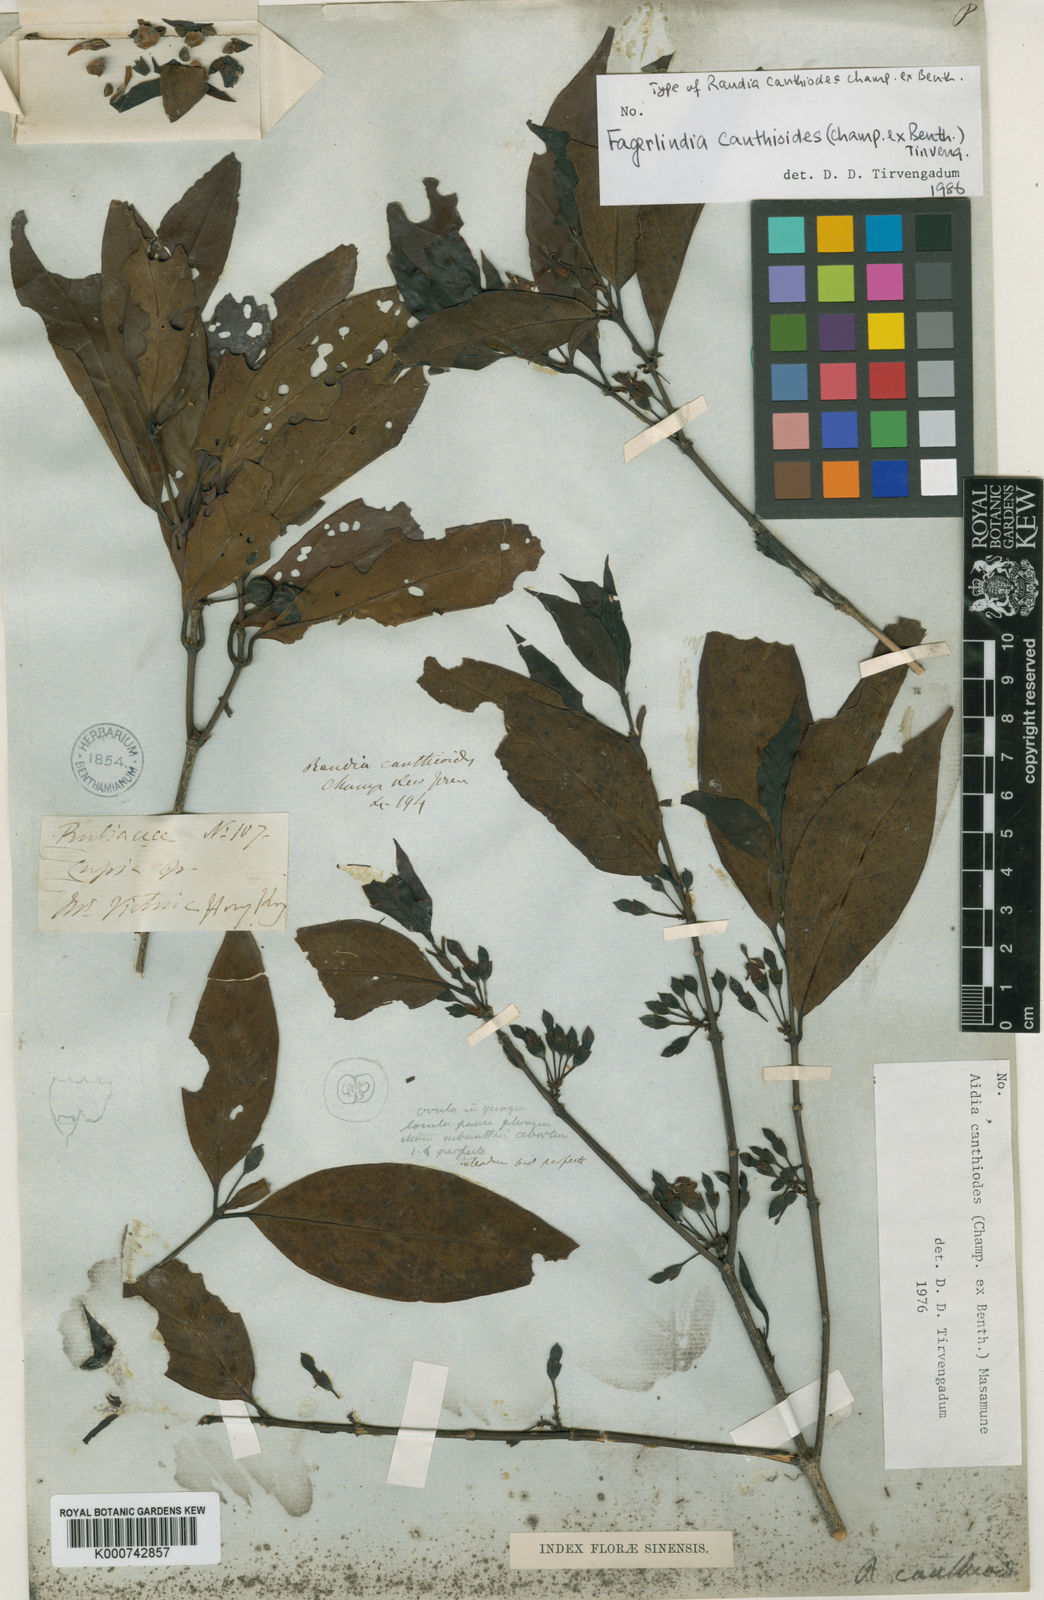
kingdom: Plantae
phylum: Tracheophyta
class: Magnoliopsida
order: Gentianales
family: Rubiaceae
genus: Aidia
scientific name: Aidia canthioides
